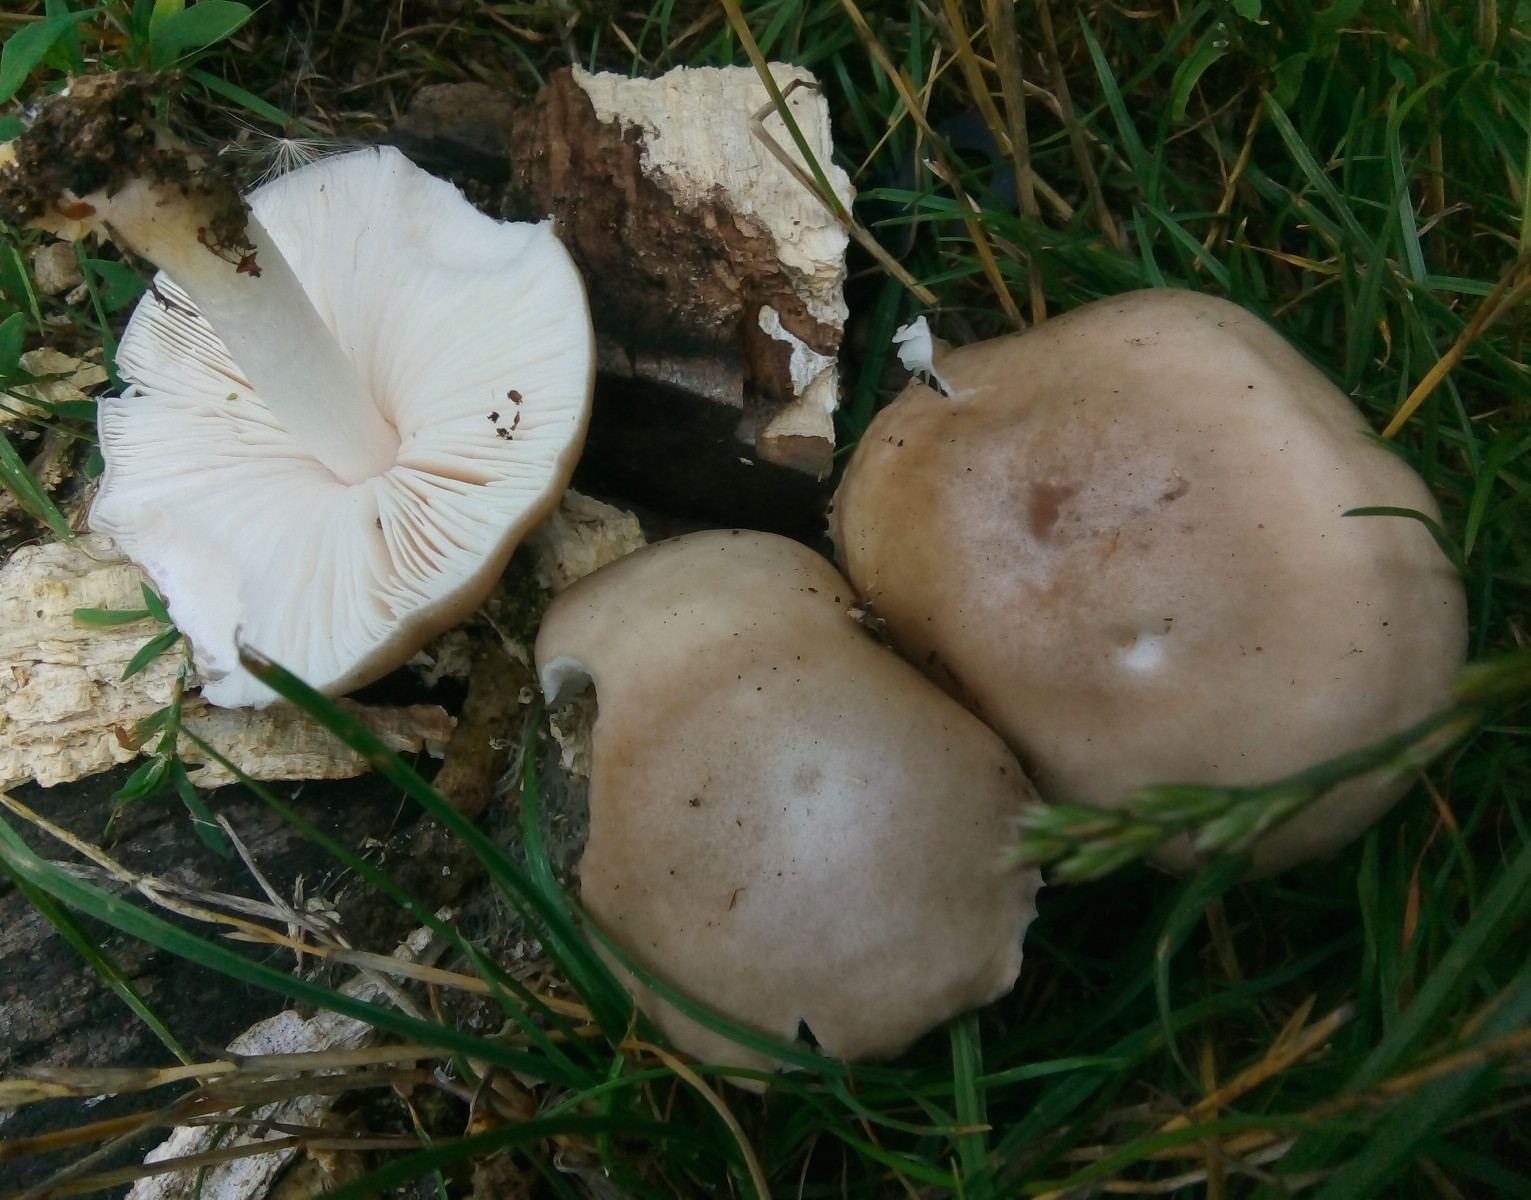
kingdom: Fungi
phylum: Basidiomycota
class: Agaricomycetes
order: Agaricales
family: Pluteaceae
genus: Pluteus
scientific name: Pluteus petasatus
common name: savsmulds-skærmhat
